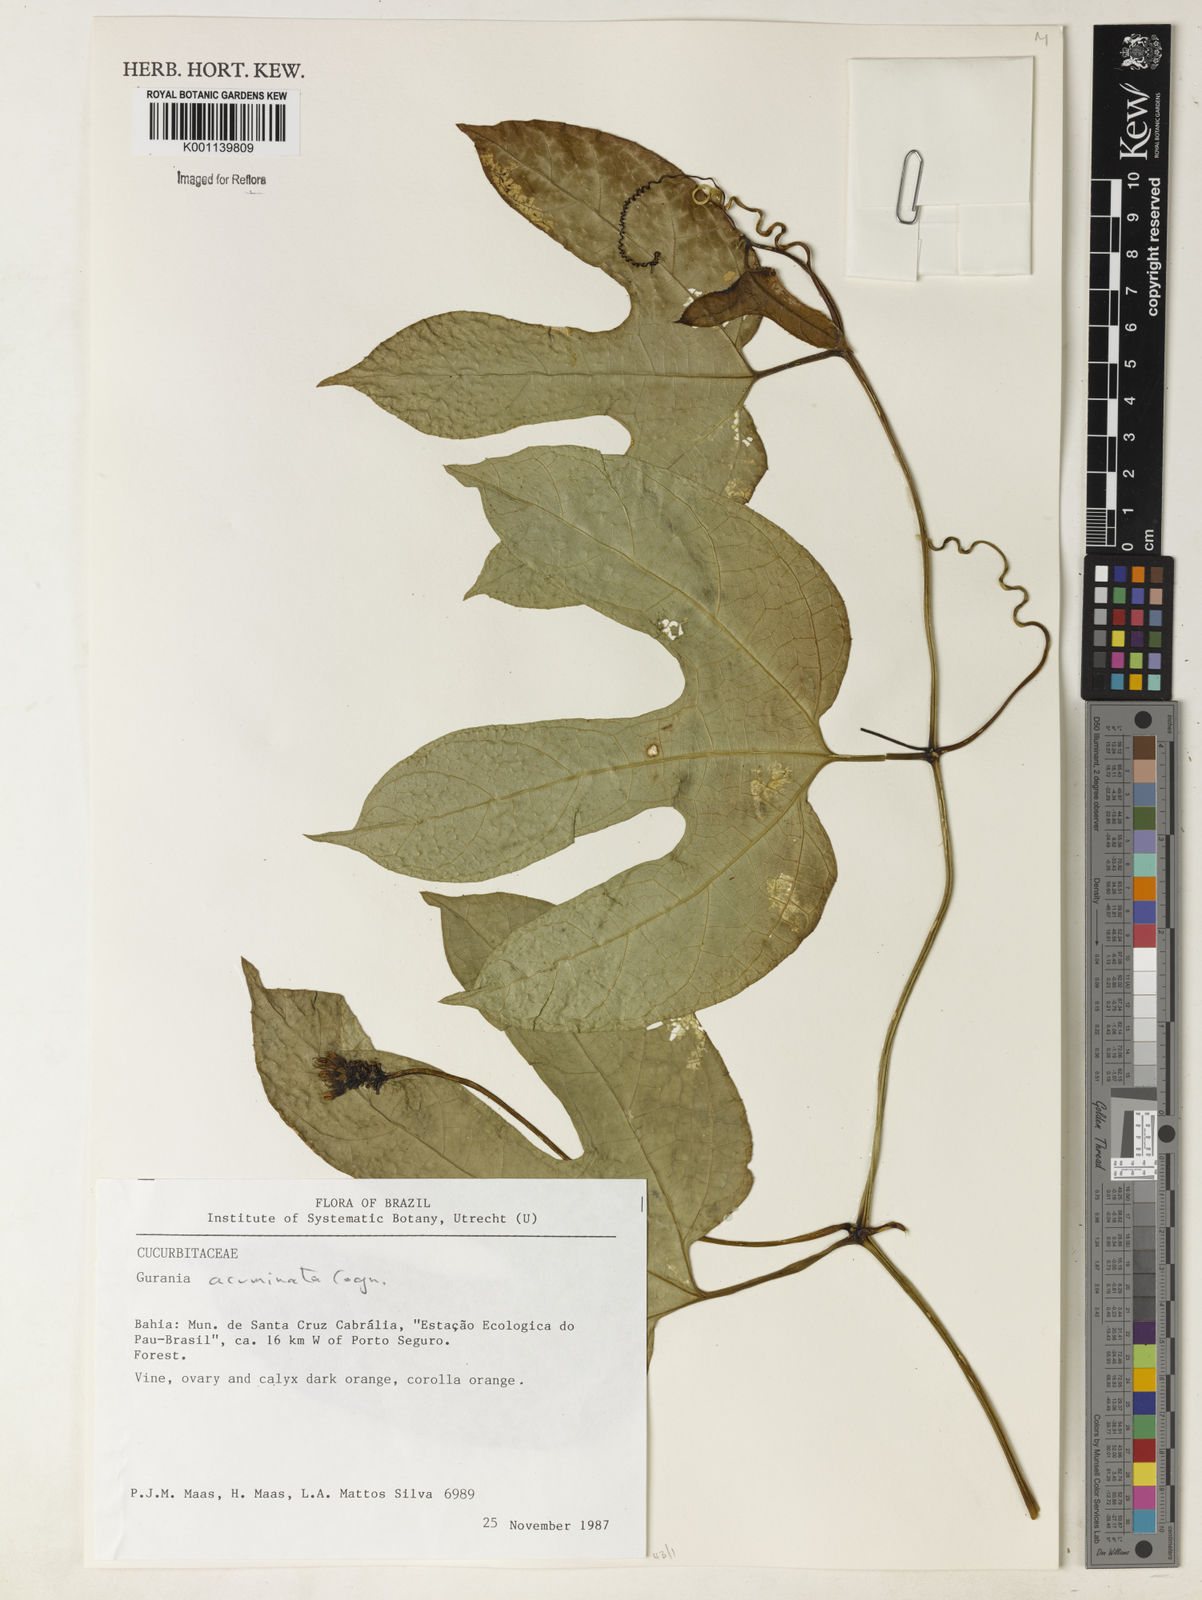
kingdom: Plantae
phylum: Tracheophyta
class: Magnoliopsida
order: Cucurbitales
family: Cucurbitaceae
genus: Gurania
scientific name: Gurania acuminata
